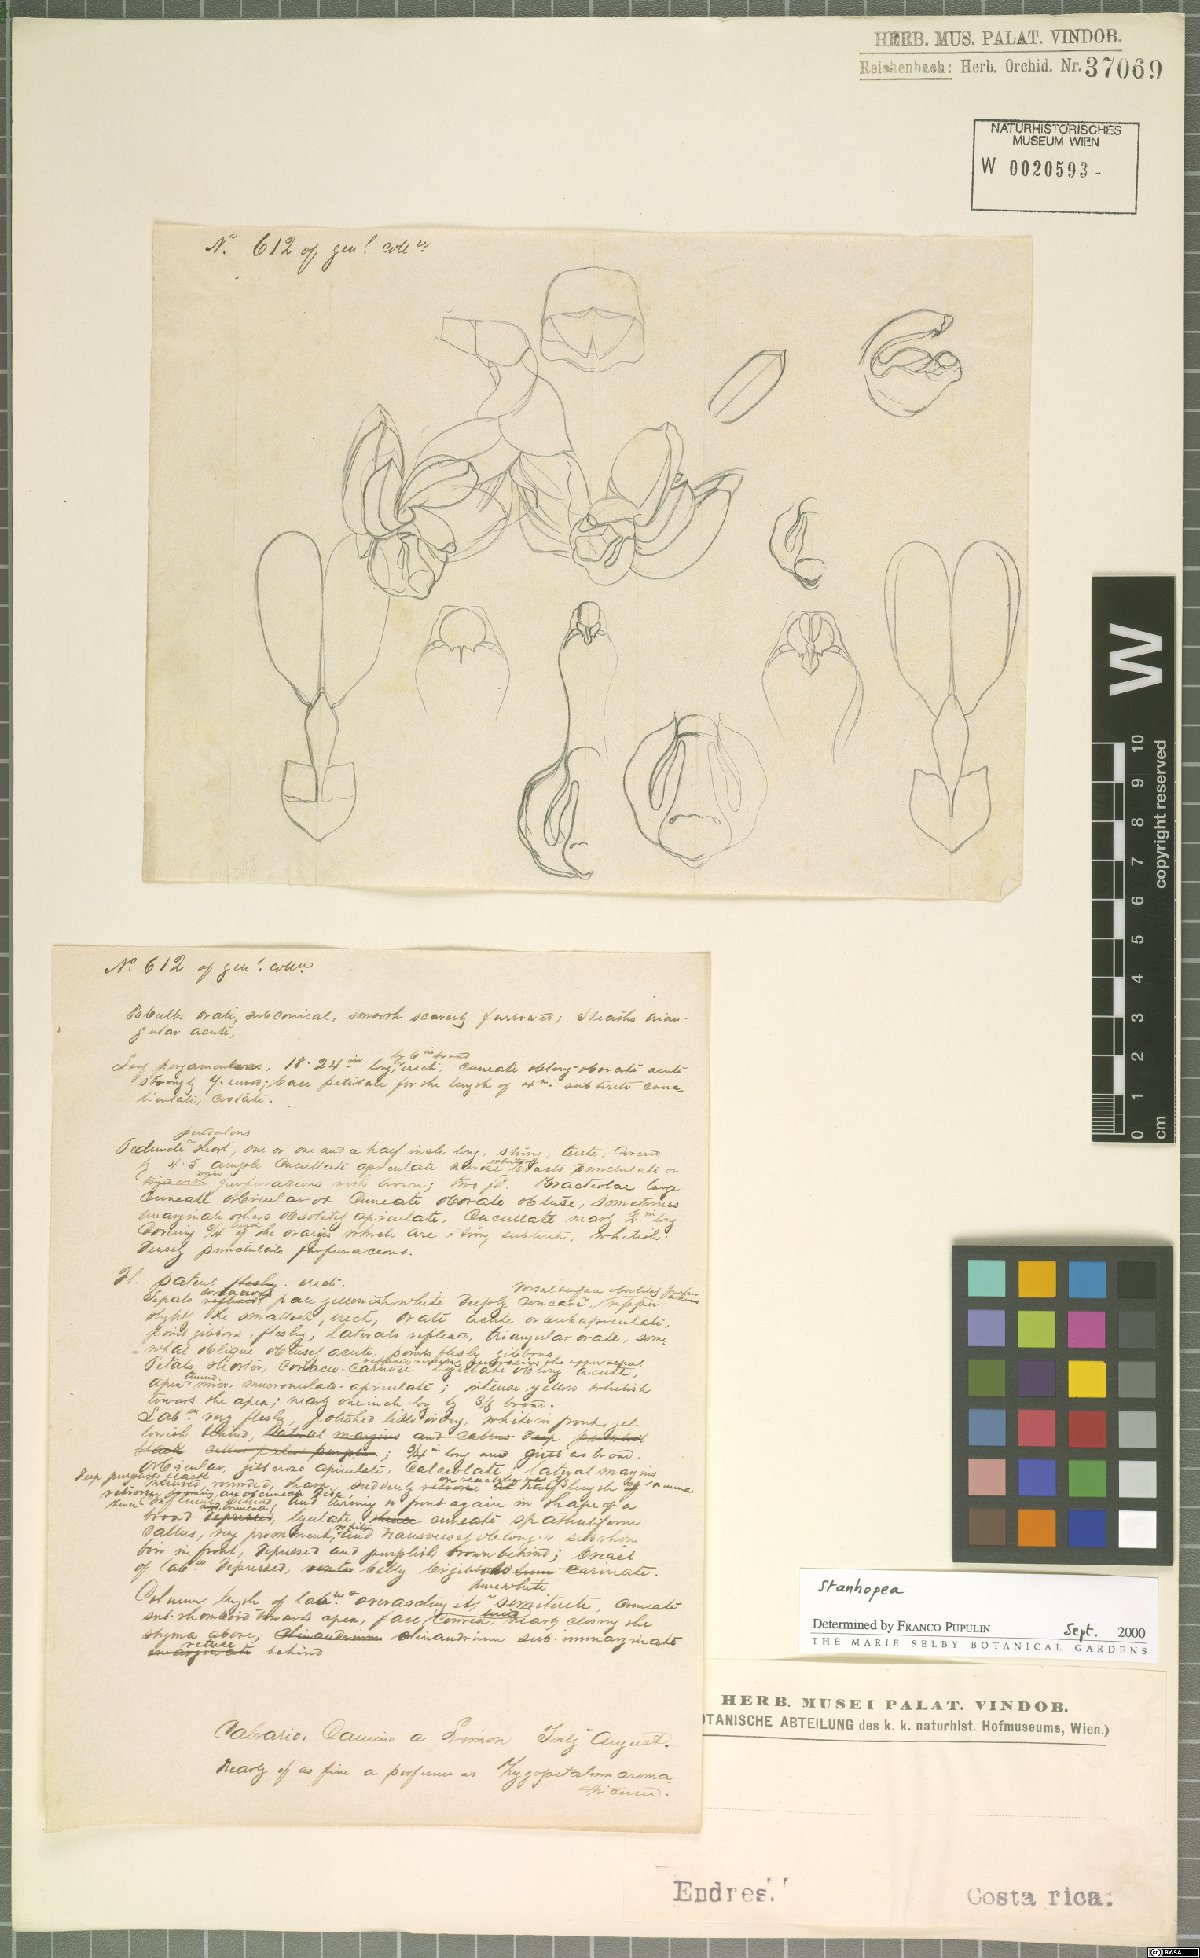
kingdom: Plantae
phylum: Tracheophyta
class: Liliopsida
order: Asparagales
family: Orchidaceae
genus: Stanhopea
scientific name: Stanhopea pulla
